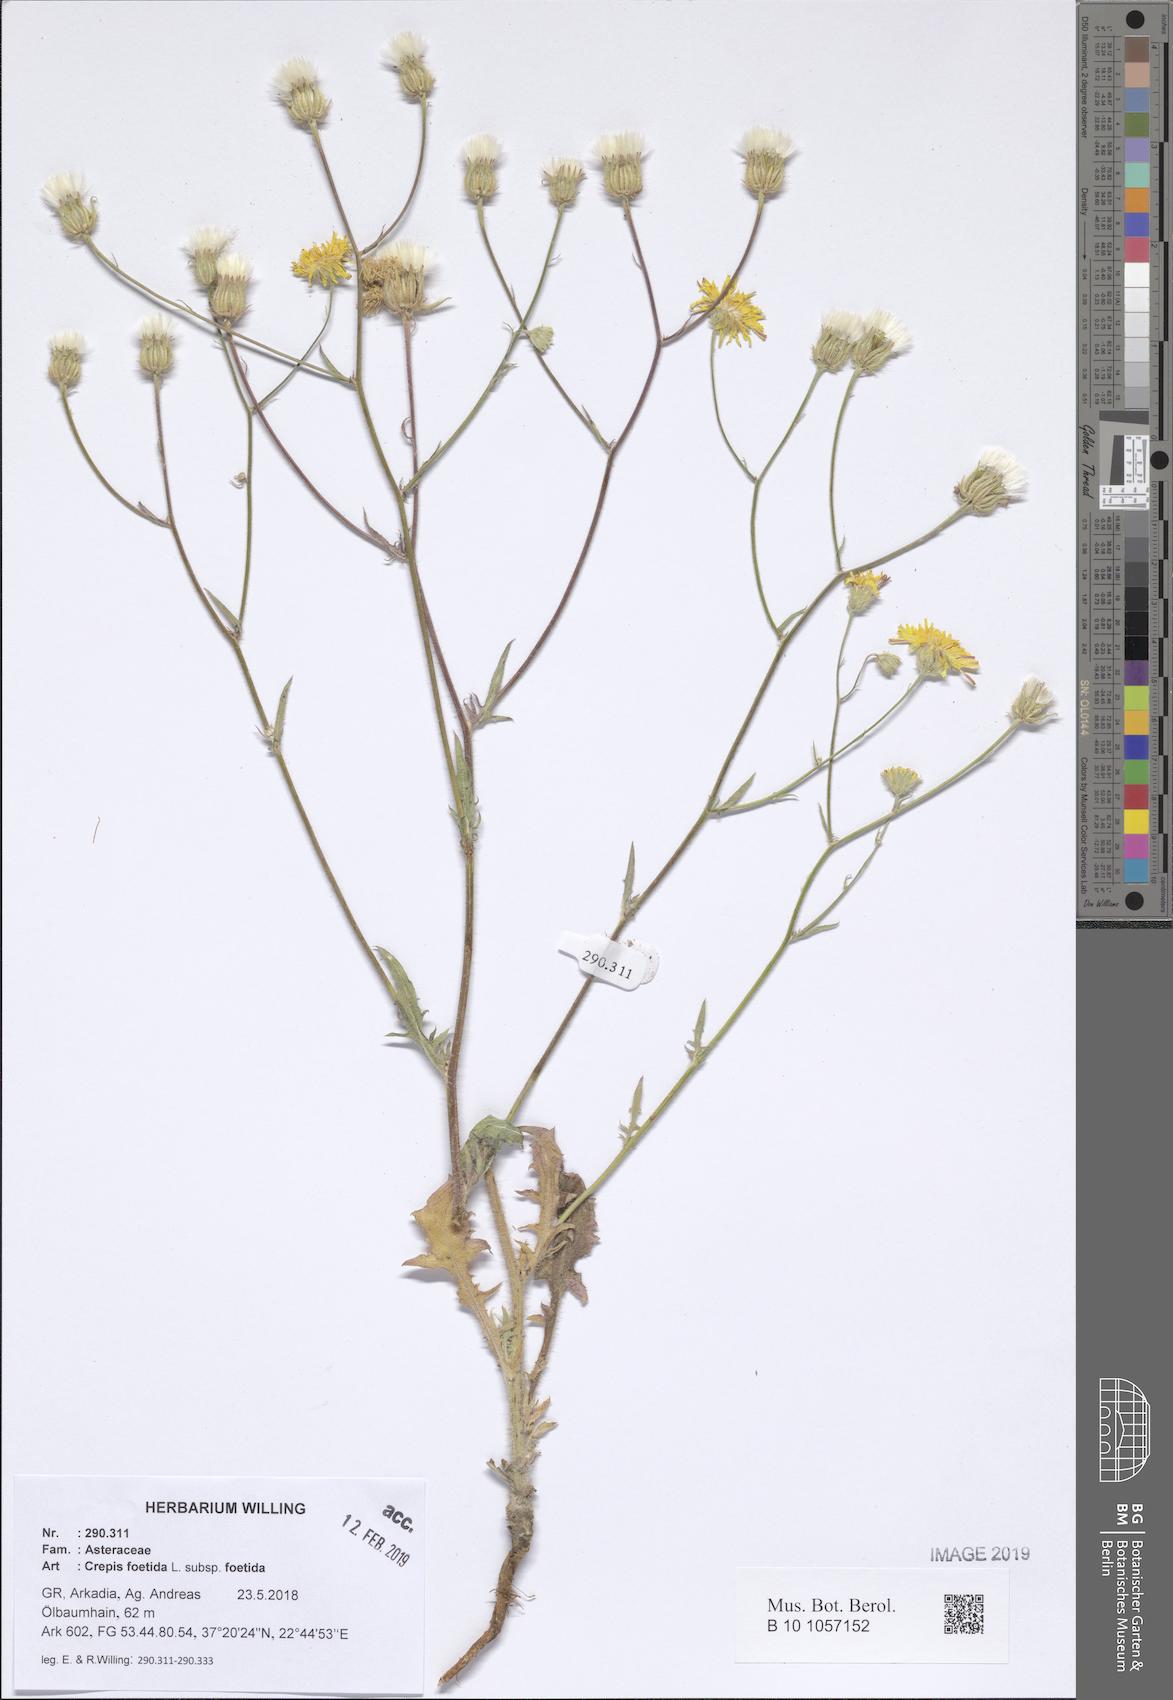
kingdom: Plantae
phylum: Tracheophyta
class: Magnoliopsida
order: Asterales
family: Asteraceae
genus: Crepis
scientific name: Crepis foetida
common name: Stinking hawk's-beard
